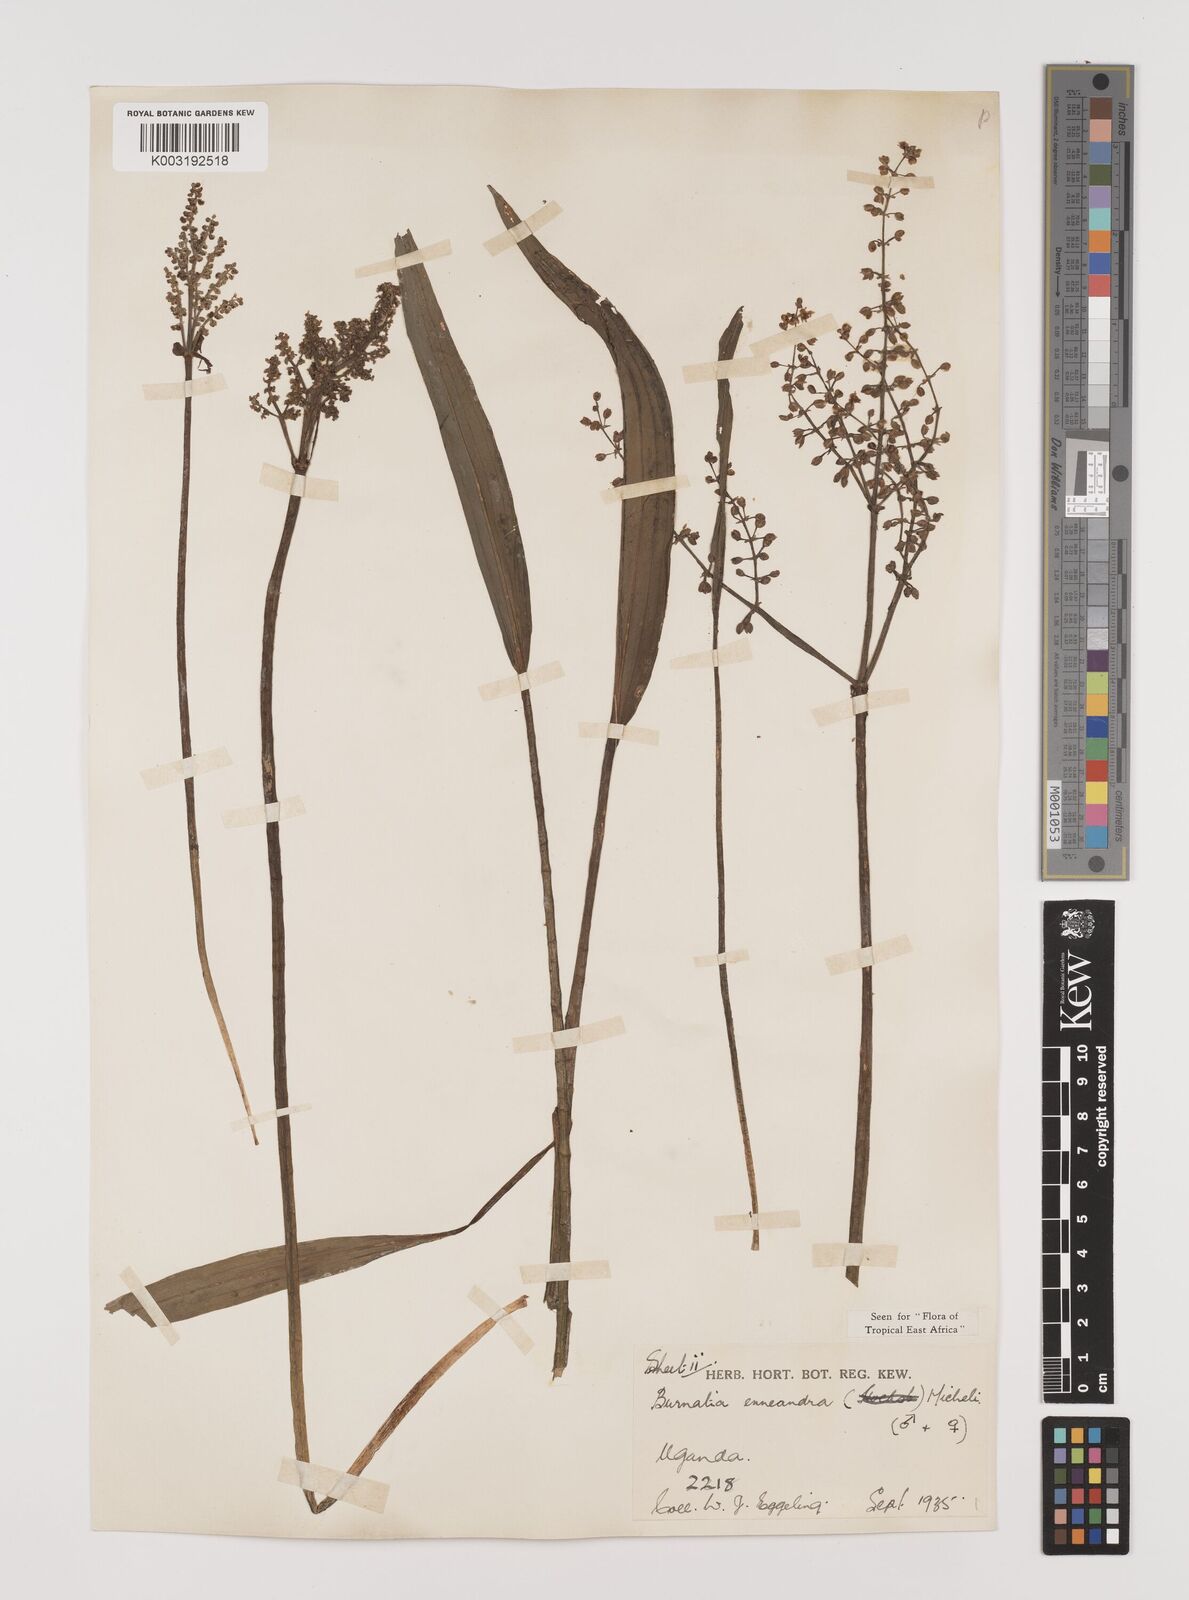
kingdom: Plantae
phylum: Tracheophyta
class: Liliopsida
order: Alismatales
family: Alismataceae
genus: Burnatia
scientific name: Burnatia enneandra
